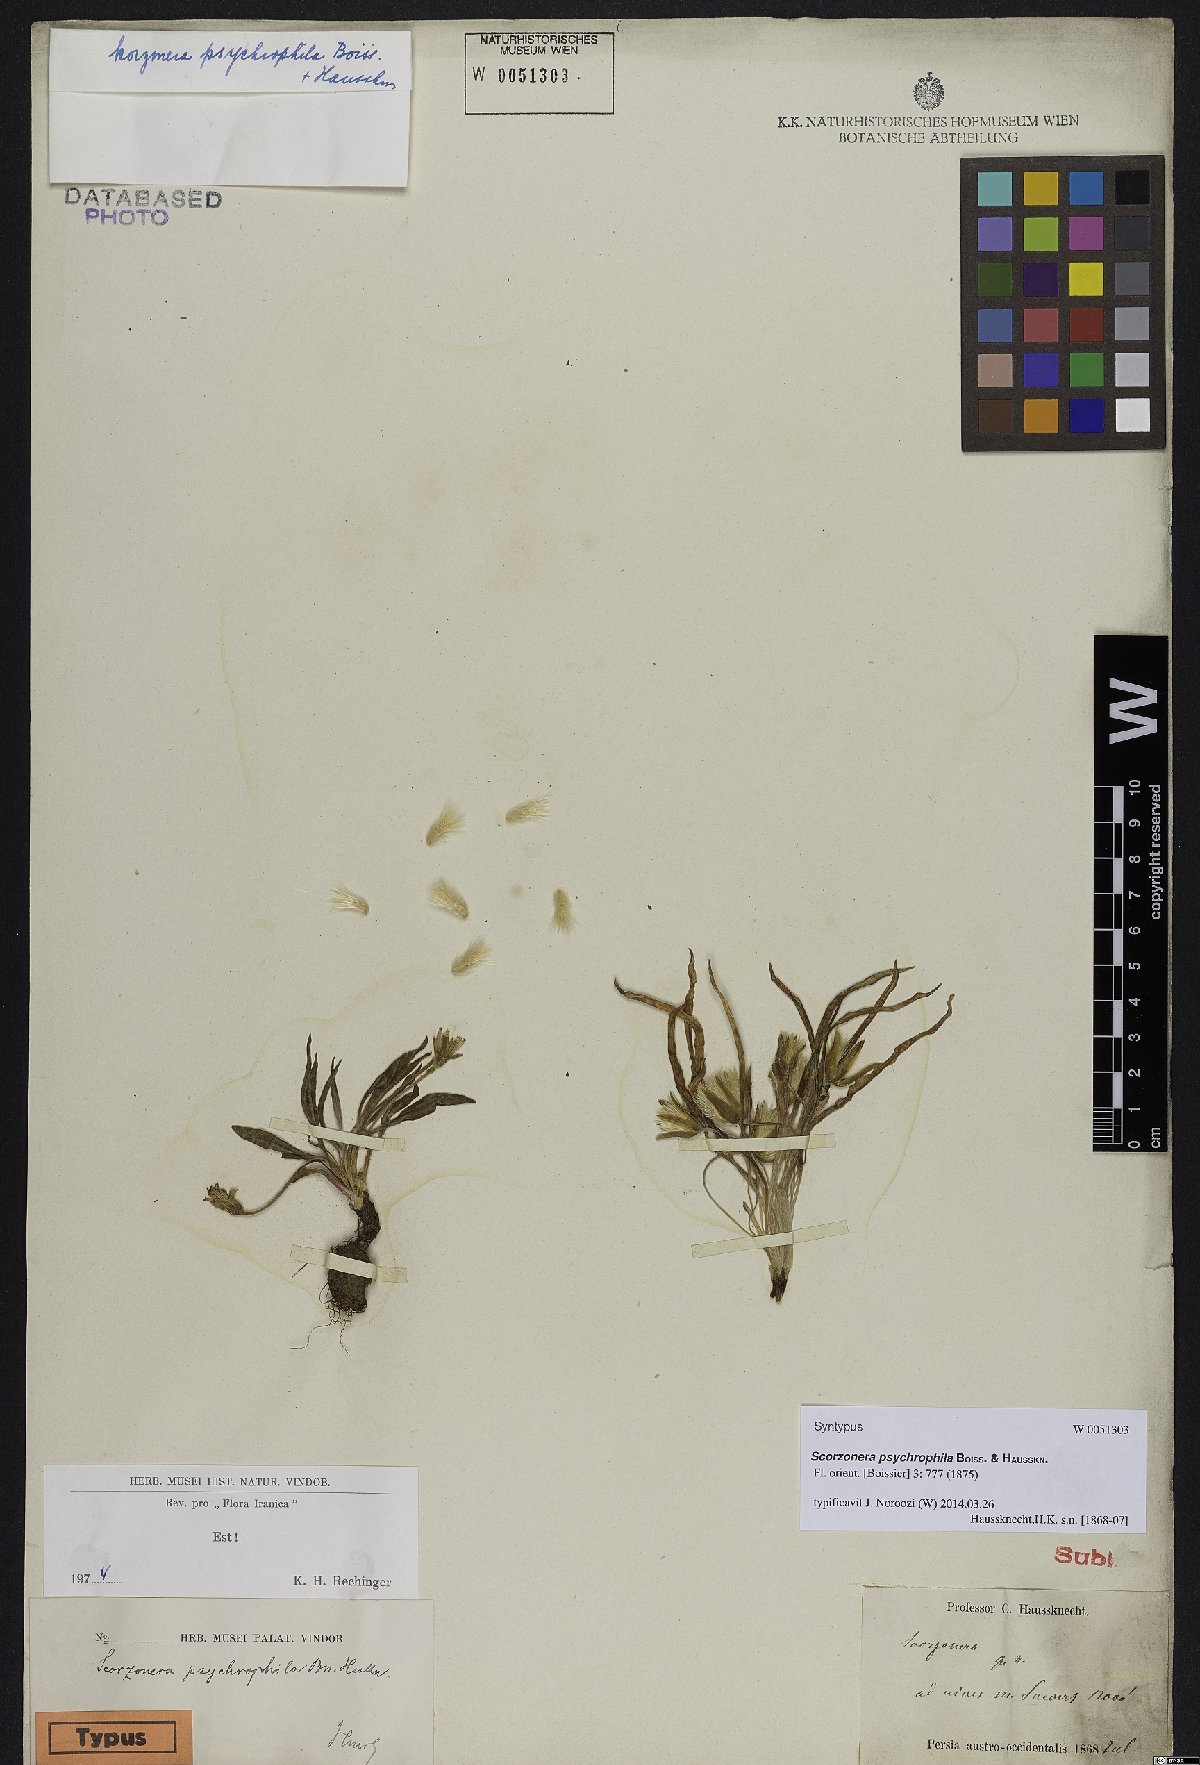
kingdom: Plantae
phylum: Tracheophyta
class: Magnoliopsida
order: Asterales
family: Asteraceae
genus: Gelasia
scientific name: Gelasia psychrophila
